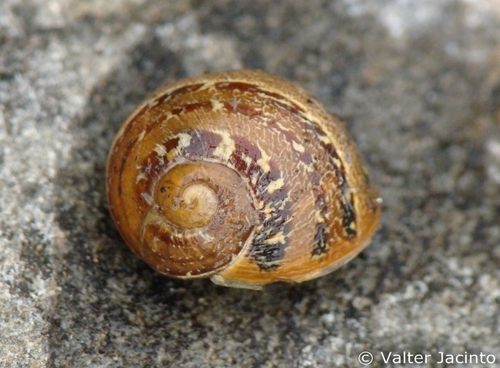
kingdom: Animalia
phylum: Mollusca
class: Gastropoda
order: Stylommatophora
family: Helicidae
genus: Cornu
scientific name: Cornu aspersum
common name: Brown garden snail
